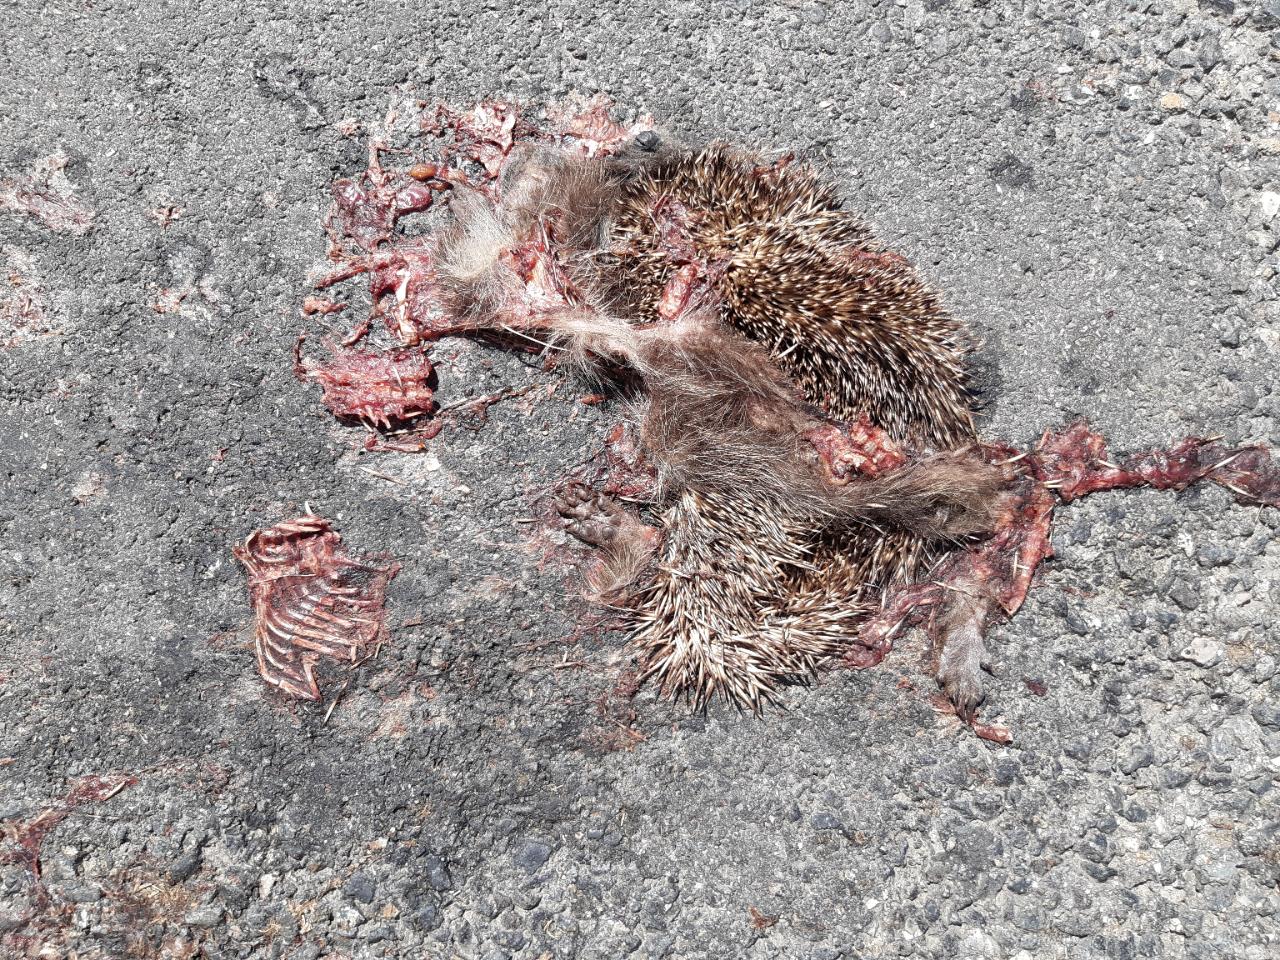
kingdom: Animalia
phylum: Chordata
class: Mammalia
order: Erinaceomorpha
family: Erinaceidae
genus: Erinaceus
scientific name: Erinaceus
